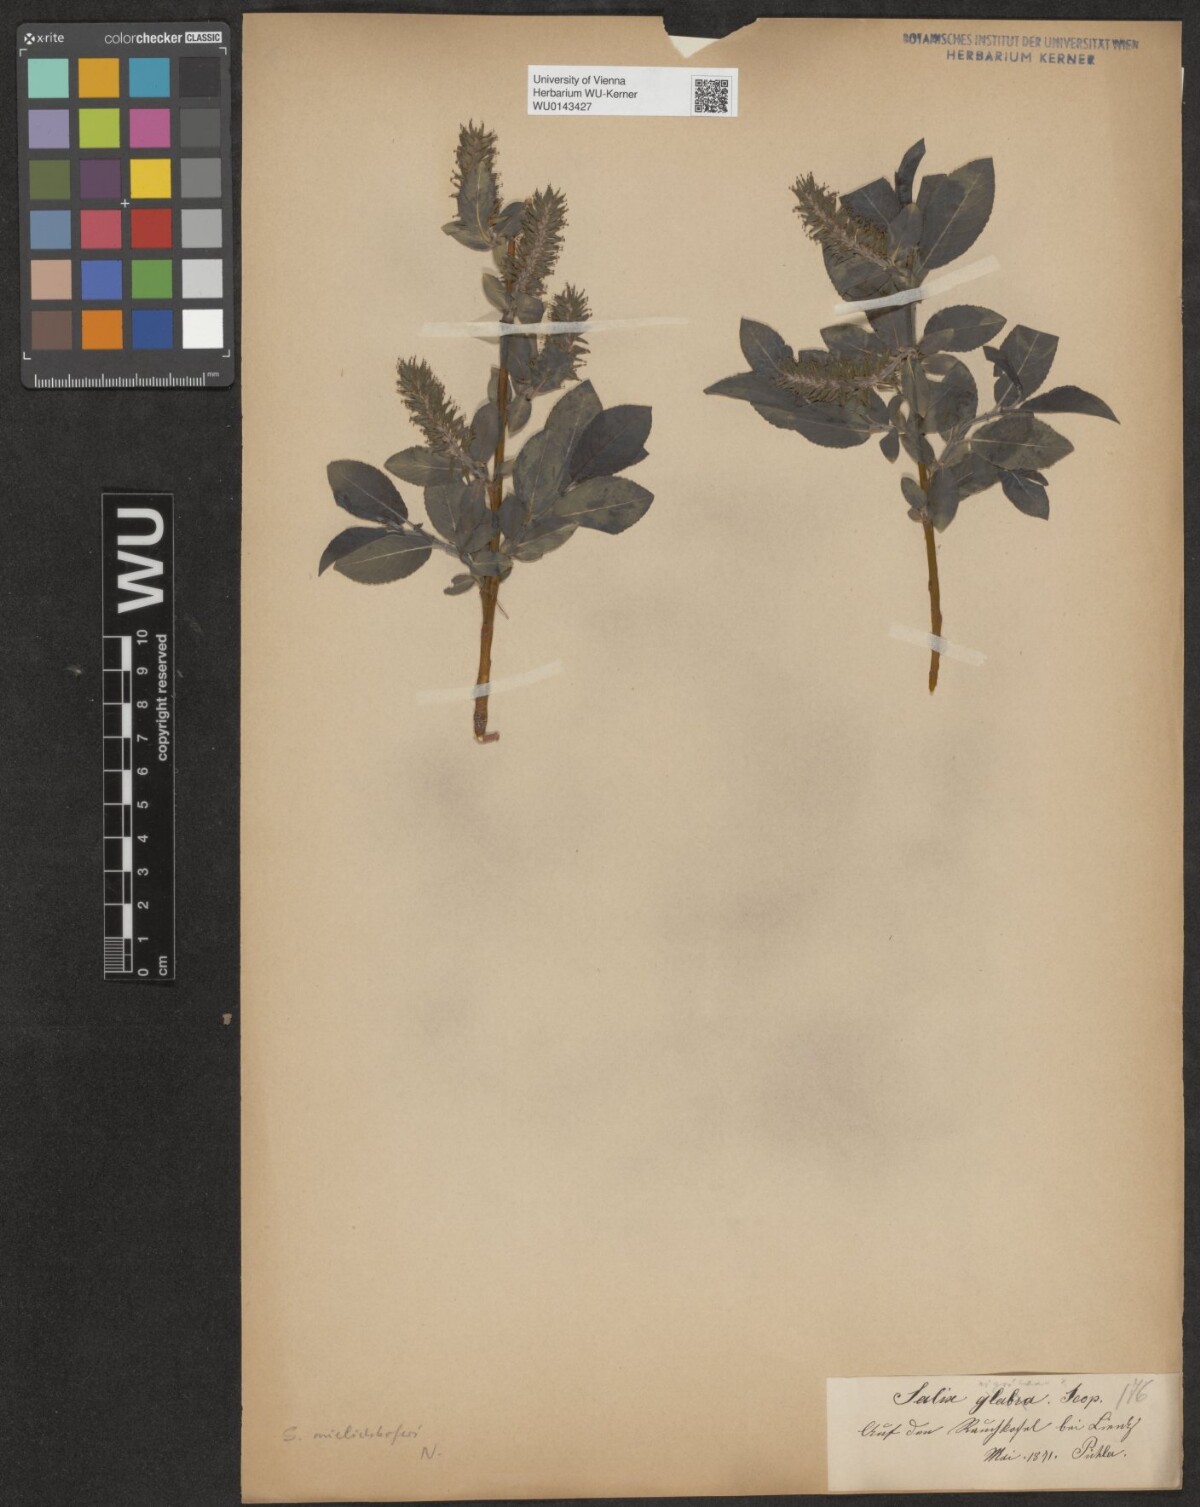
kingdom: Plantae
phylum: Tracheophyta
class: Magnoliopsida
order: Malpighiales
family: Salicaceae
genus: Salix
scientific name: Salix mielichhoferi
